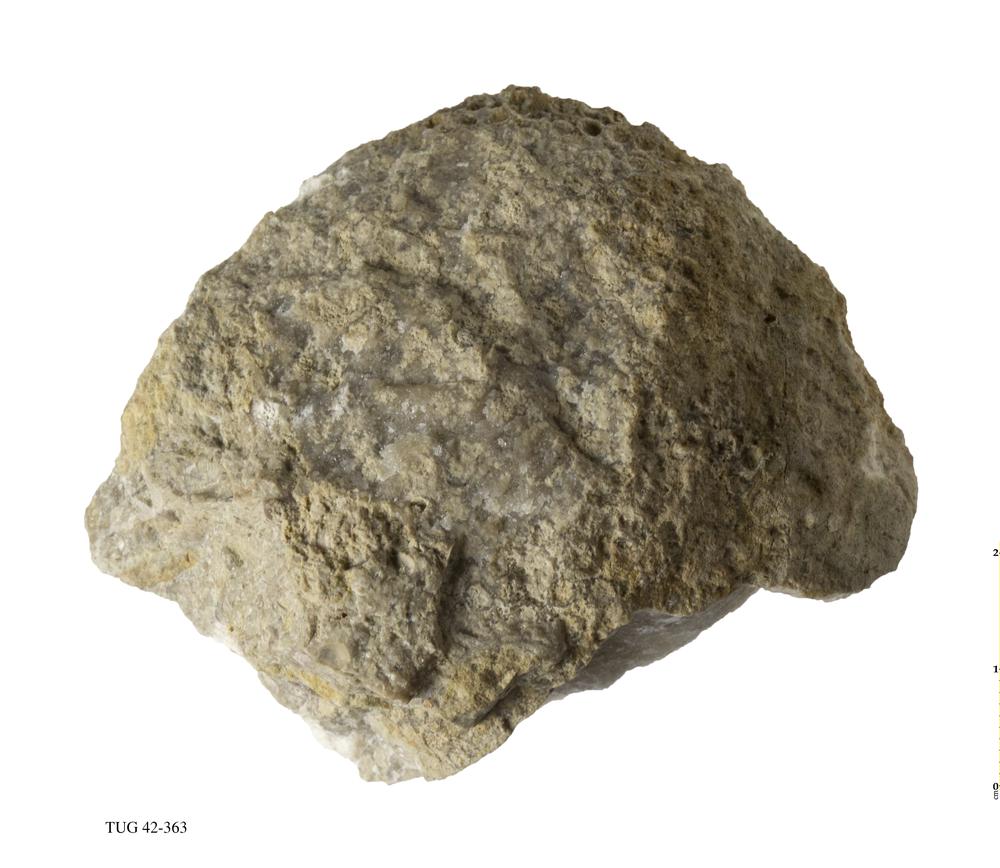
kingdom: Animalia
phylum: Cnidaria
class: Anthozoa
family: Cateniporidae
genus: Catenipora
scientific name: Catenipora
